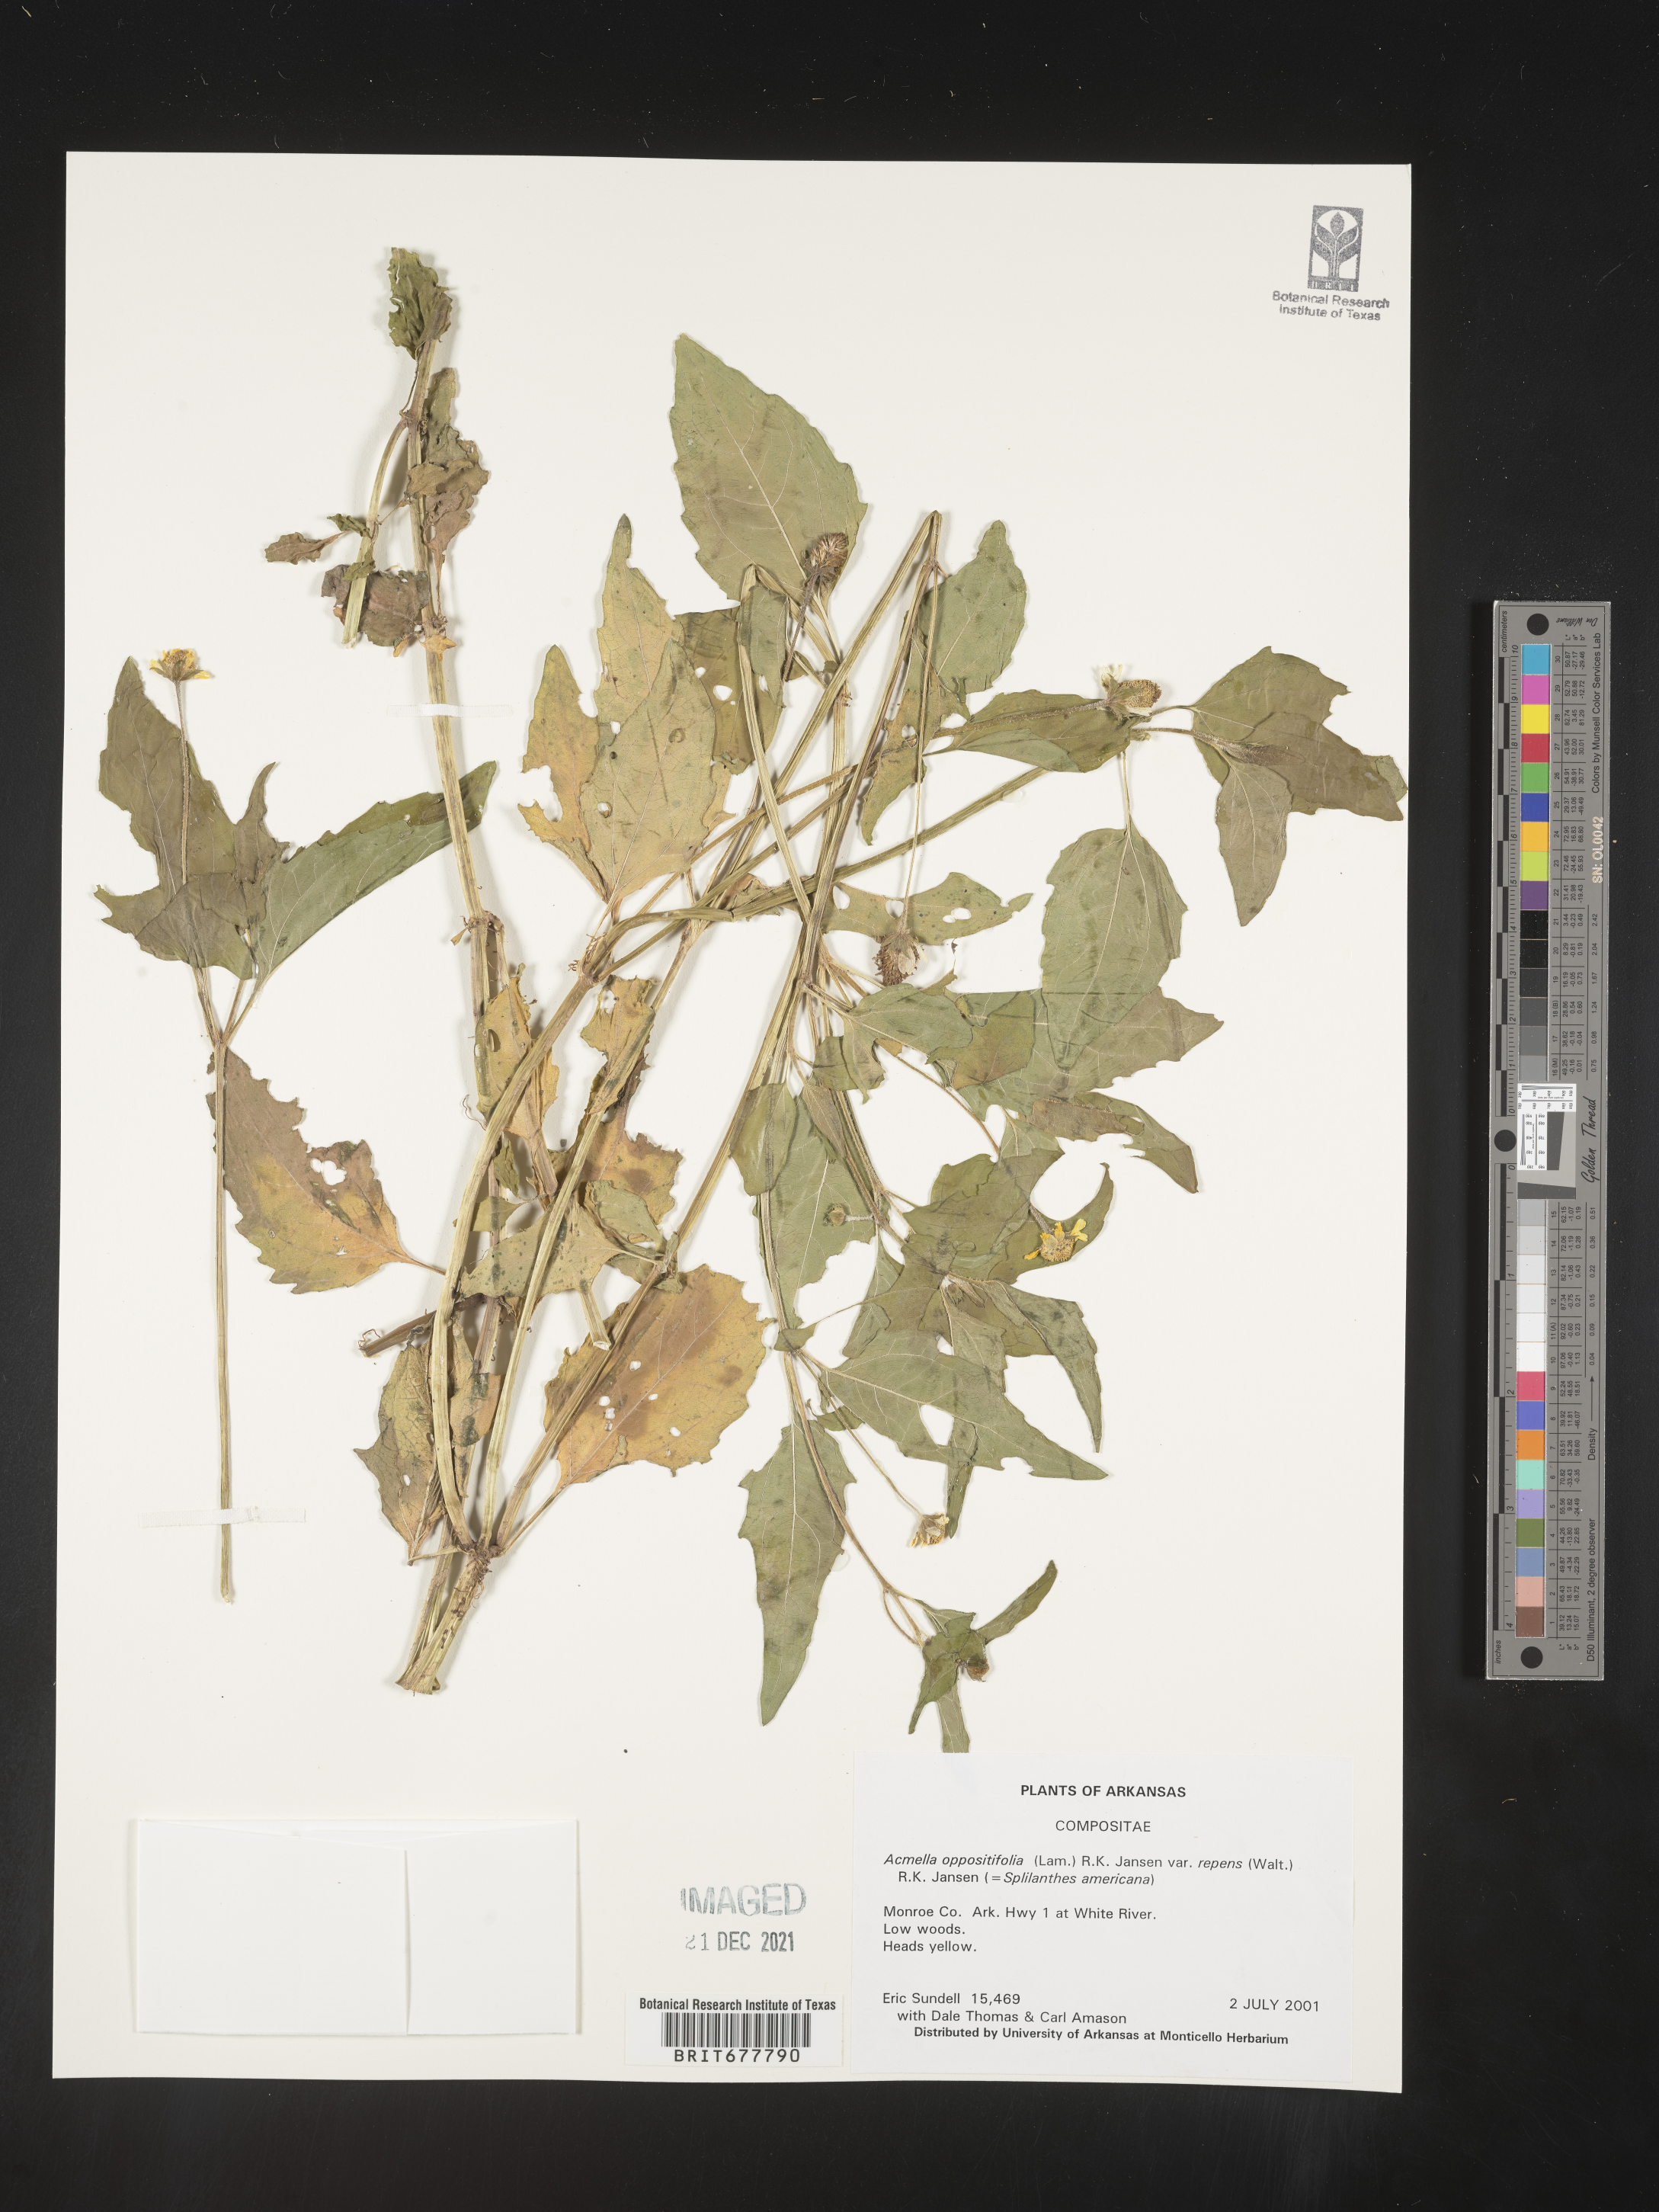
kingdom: Plantae
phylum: Tracheophyta
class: Magnoliopsida
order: Asterales
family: Asteraceae
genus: Spilanthes
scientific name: Spilanthes
